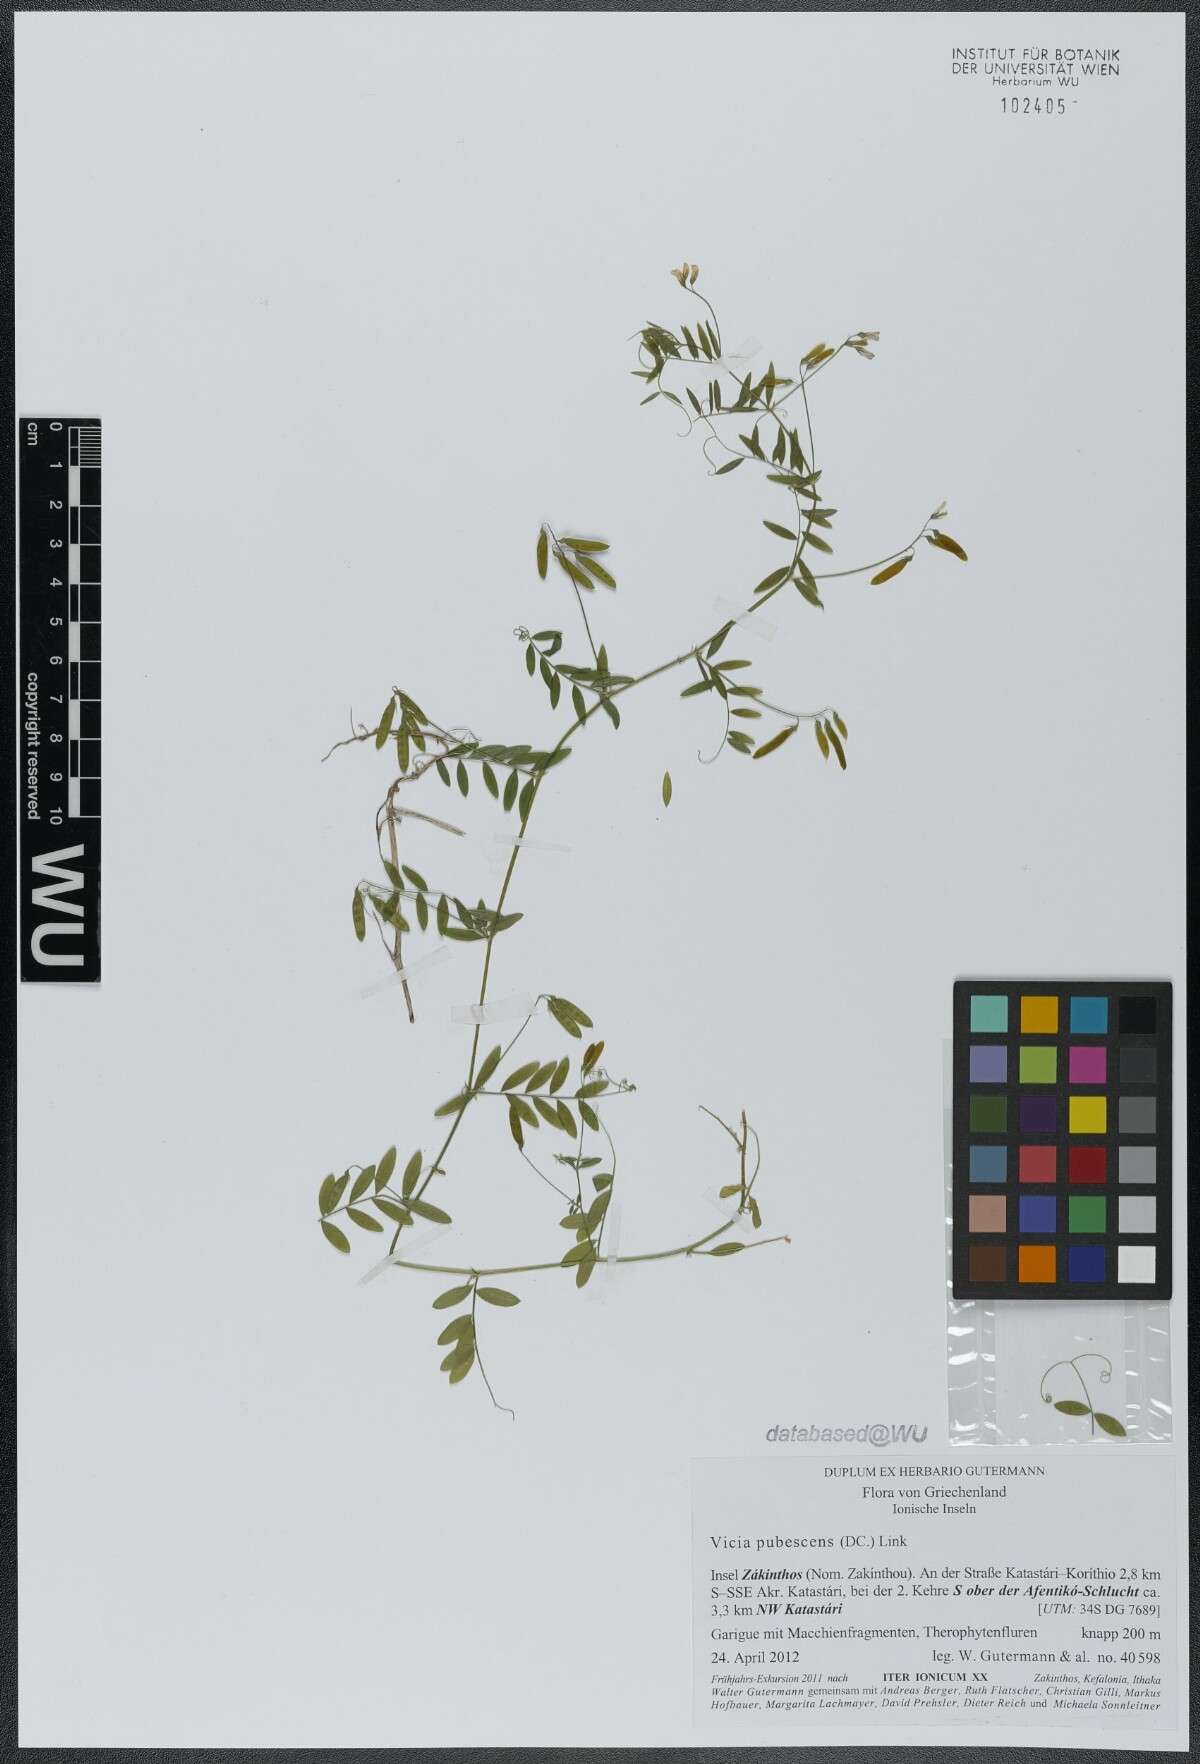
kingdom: Plantae
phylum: Tracheophyta
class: Magnoliopsida
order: Fabales
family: Fabaceae
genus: Vicia
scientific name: Vicia pubescens
